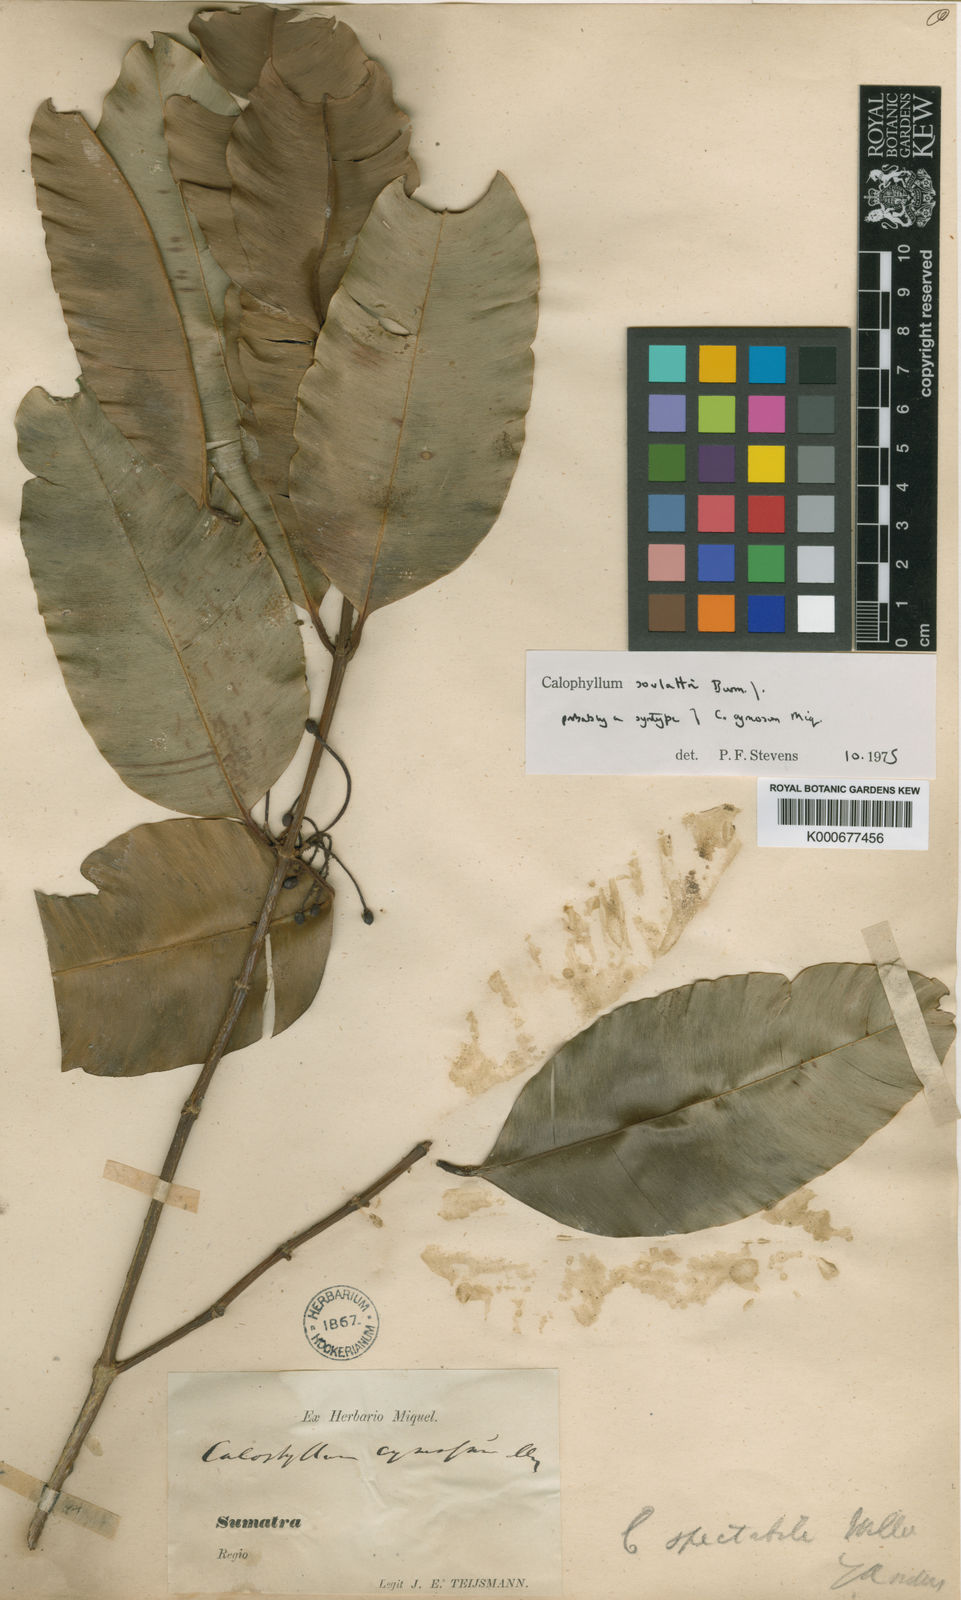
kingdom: Plantae
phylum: Tracheophyta
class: Magnoliopsida
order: Malpighiales
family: Calophyllaceae
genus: Calophyllum
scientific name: Calophyllum
